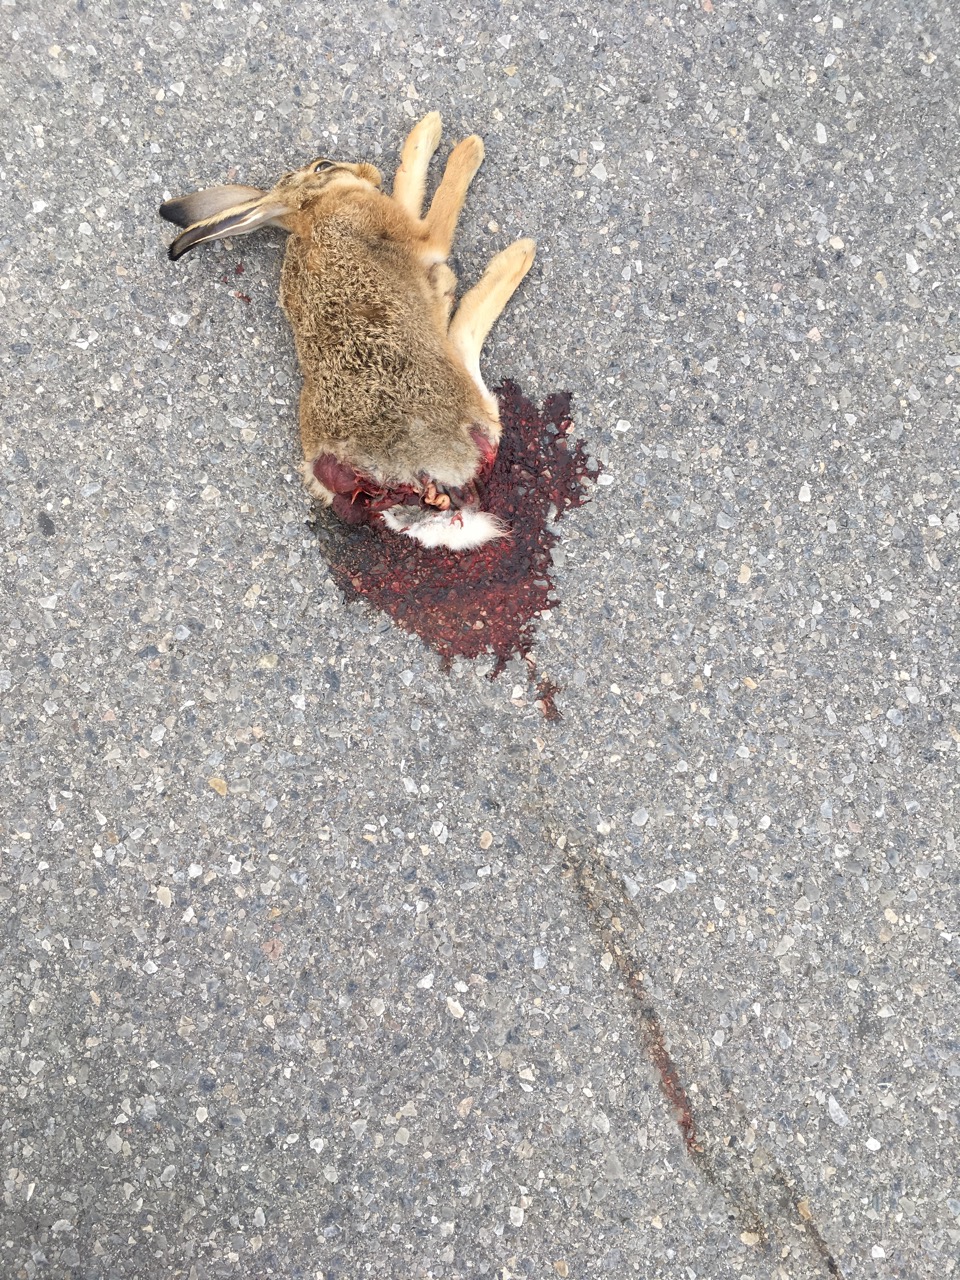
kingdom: Animalia
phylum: Chordata
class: Mammalia
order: Lagomorpha
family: Leporidae
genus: Lepus
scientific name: Lepus europaeus
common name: European hare
